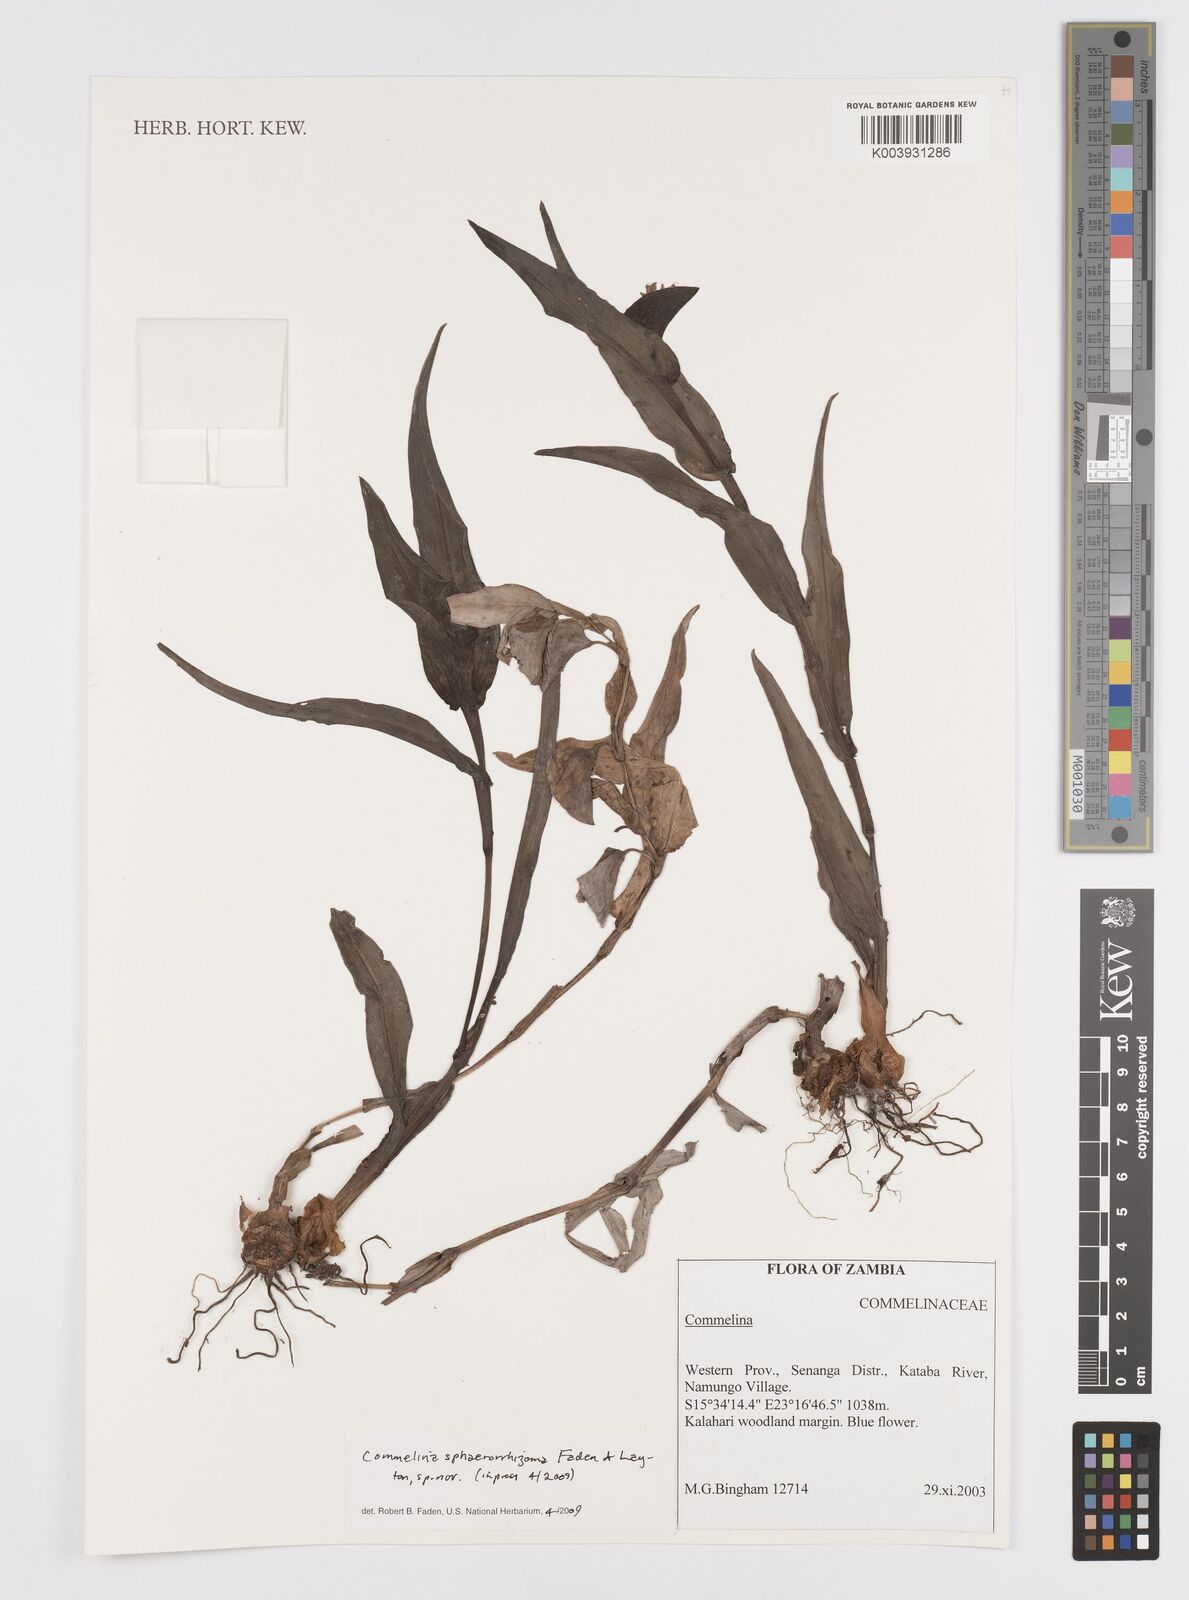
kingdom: Plantae
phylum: Tracheophyta
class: Liliopsida
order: Commelinales
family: Commelinaceae
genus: Commelina
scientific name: Commelina sphaerorrhizoma
